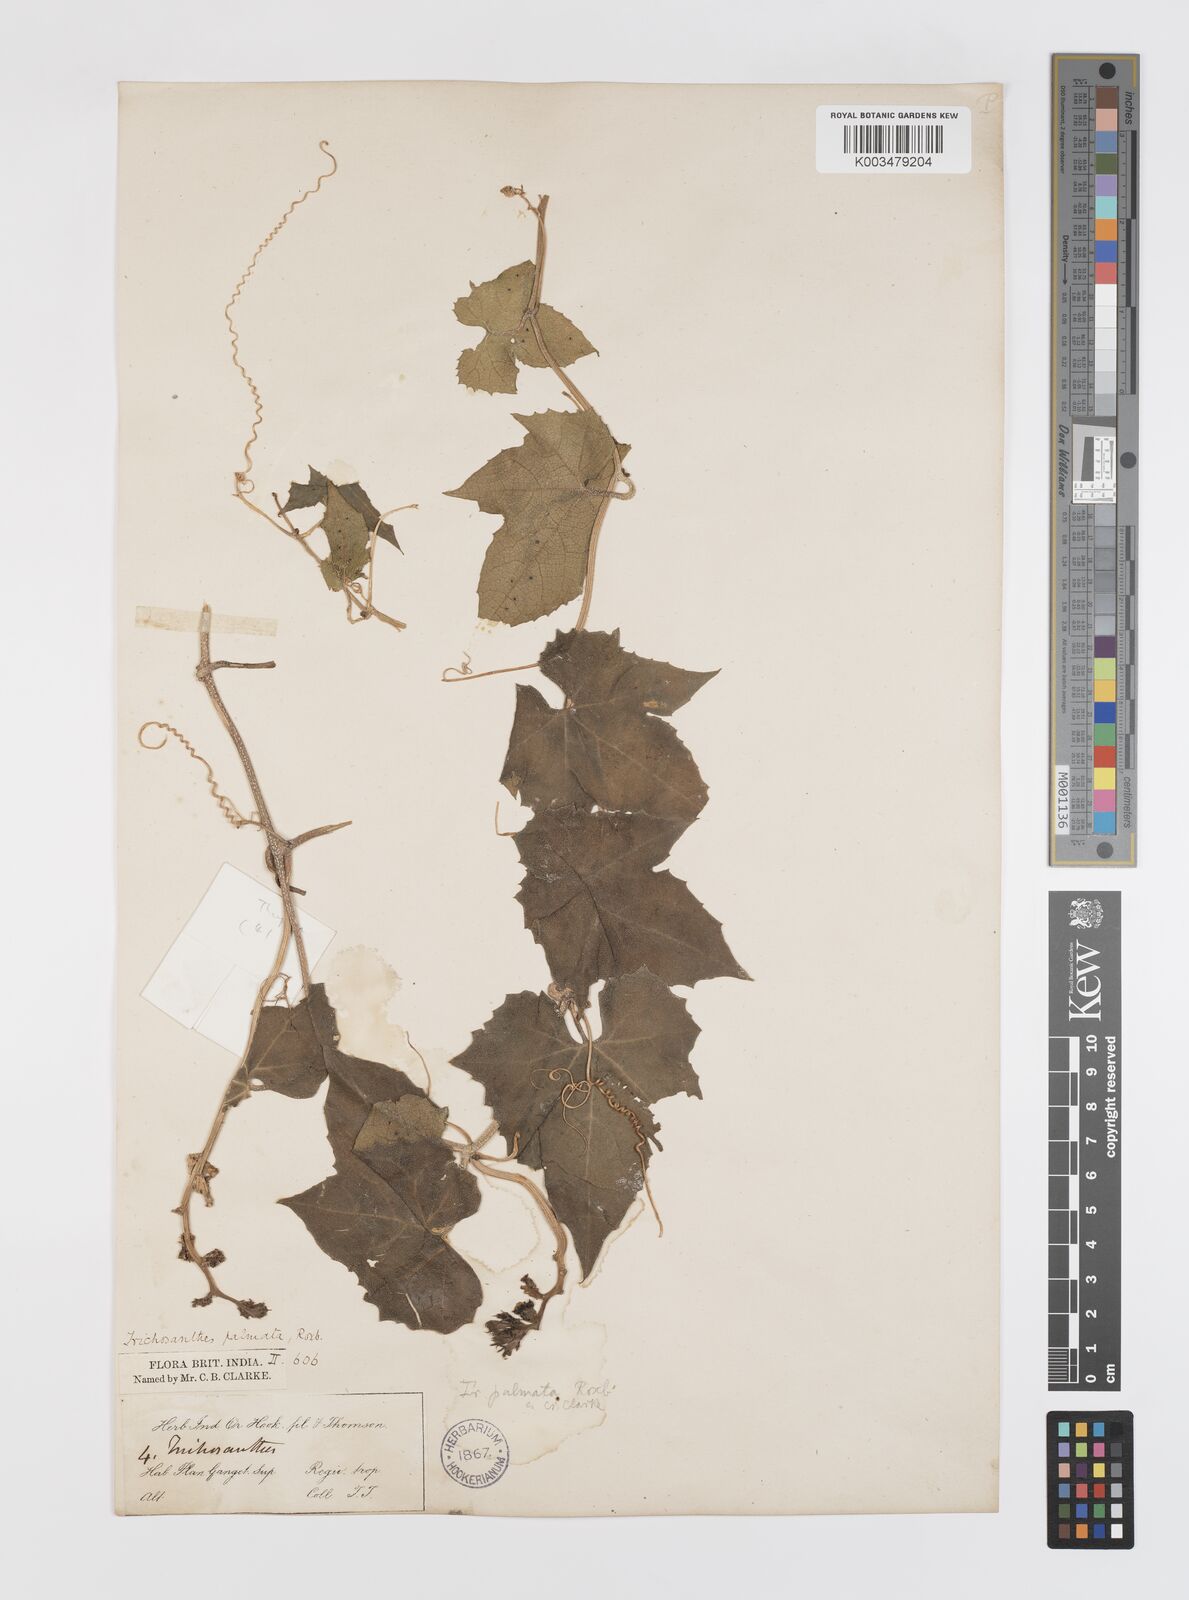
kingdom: Plantae
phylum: Tracheophyta
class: Magnoliopsida
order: Cucurbitales
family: Cucurbitaceae
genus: Trichosanthes
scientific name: Trichosanthes tricuspidata
